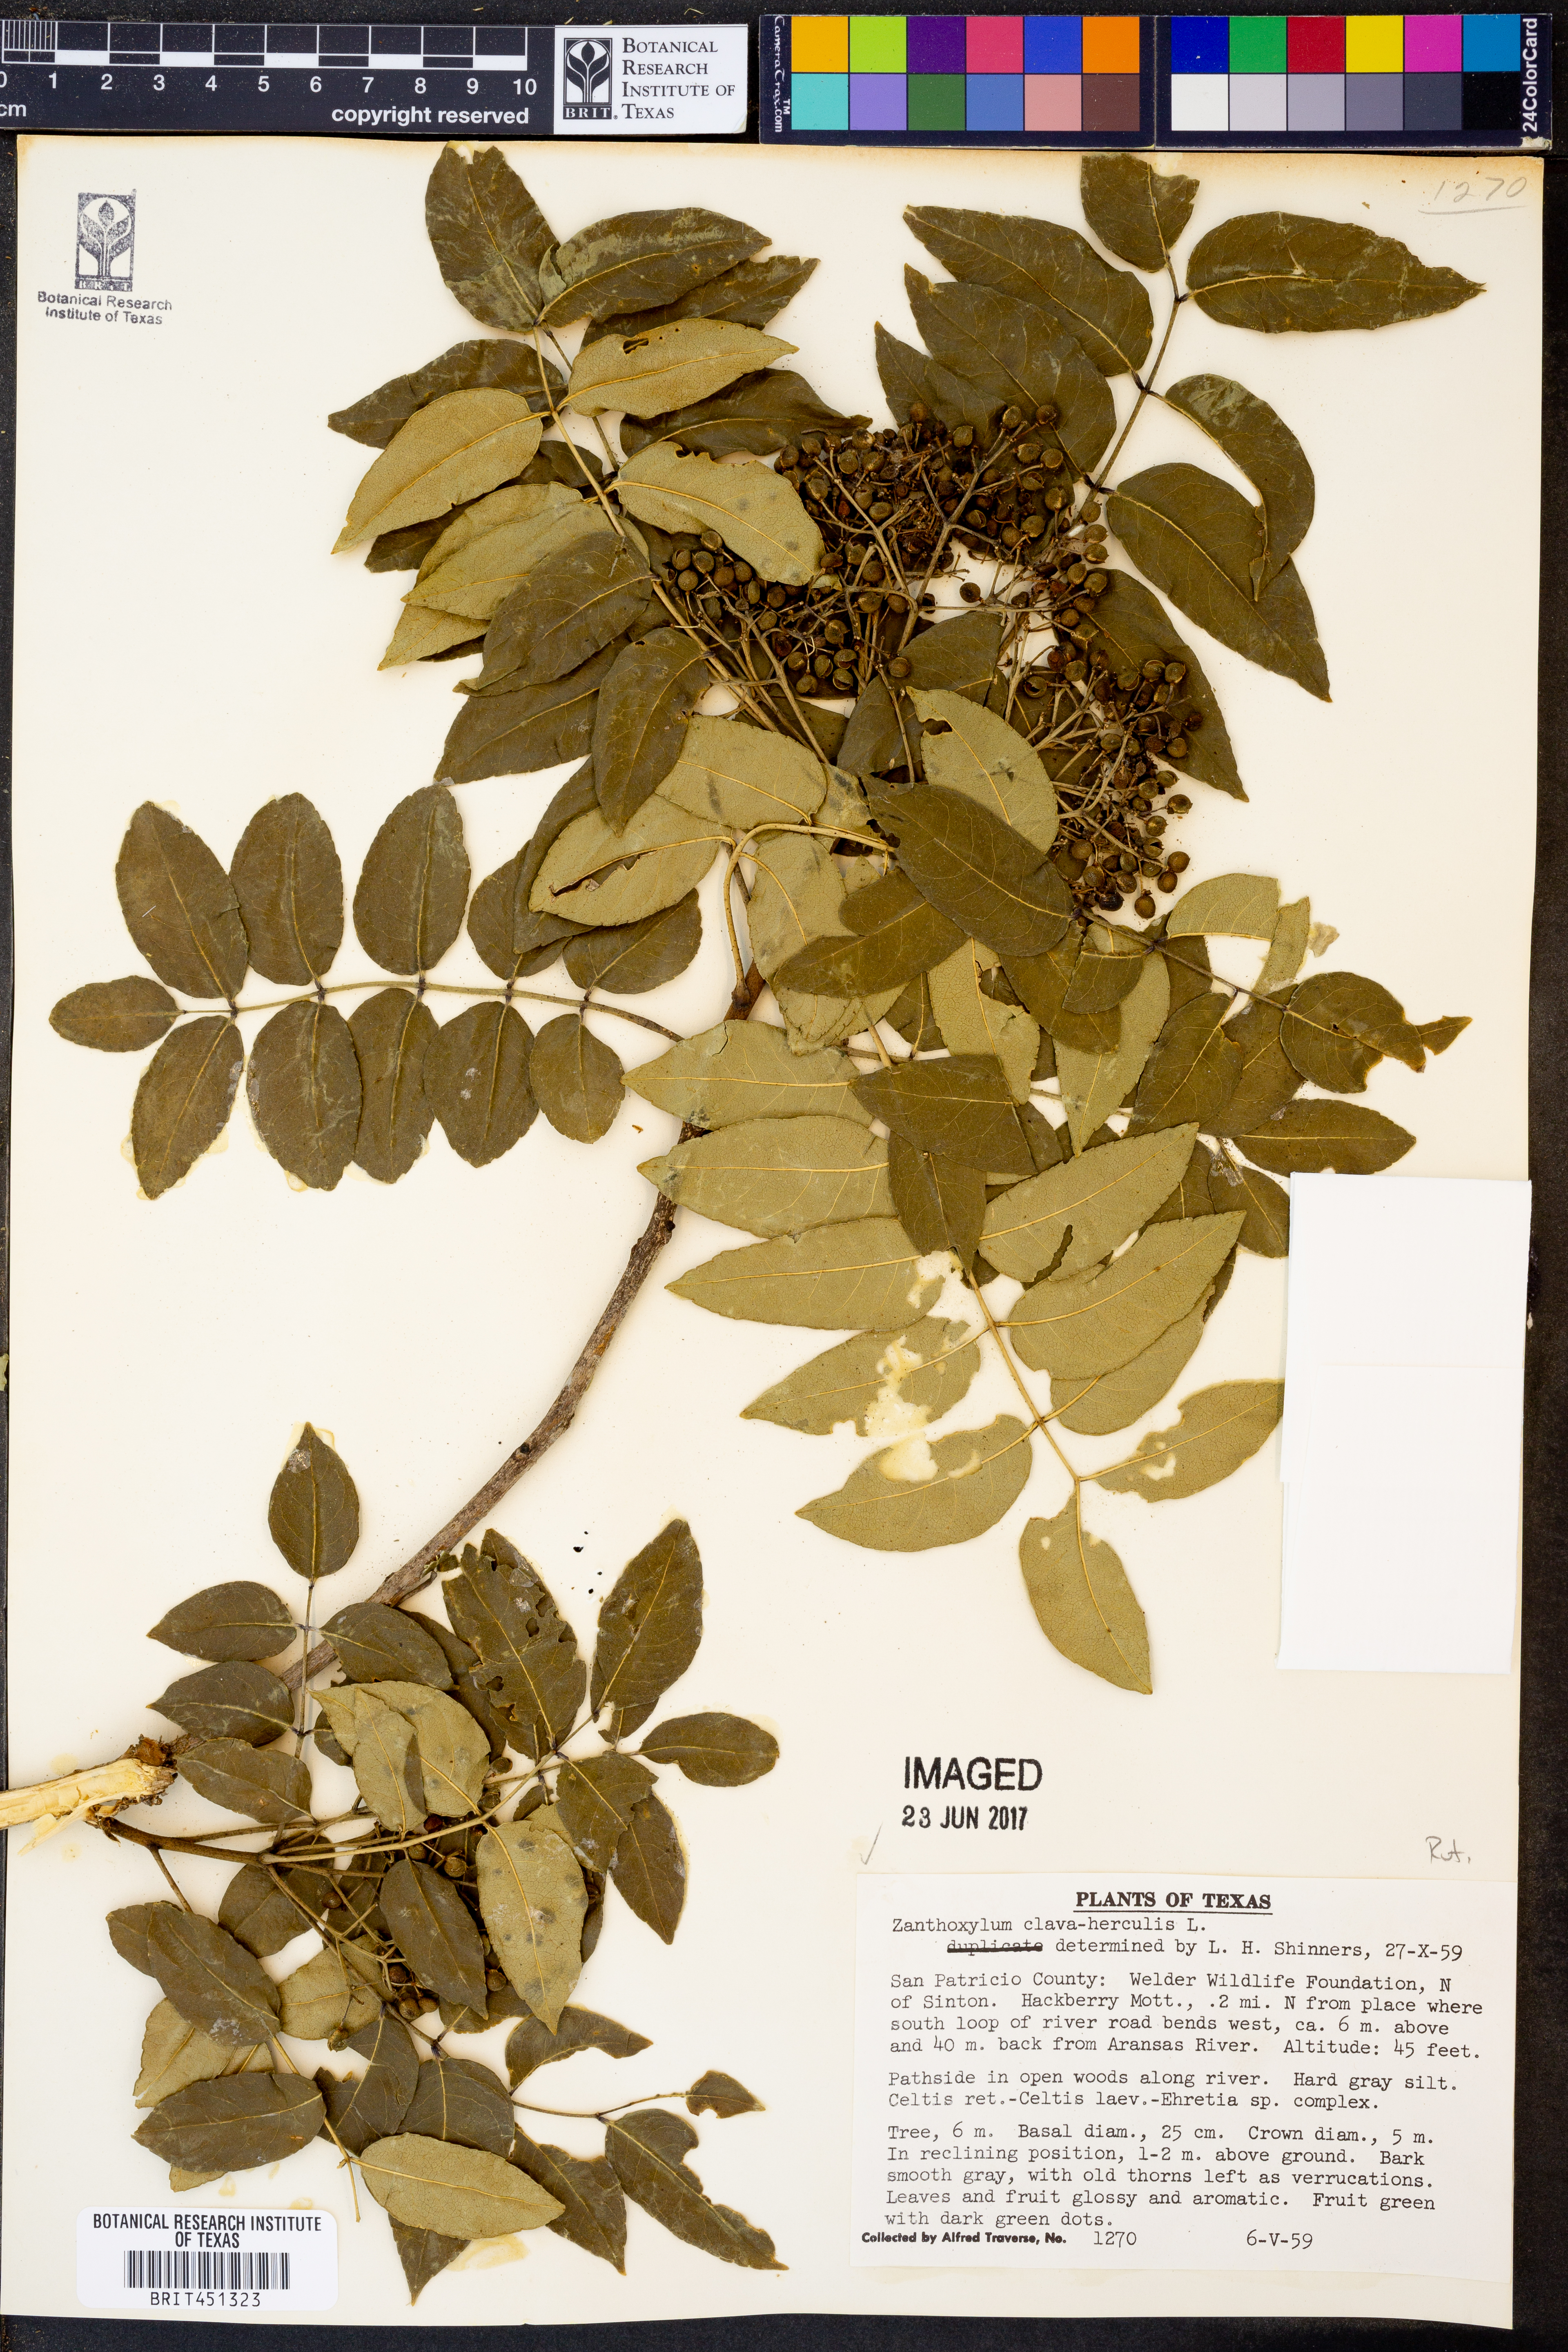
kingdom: Plantae
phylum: Tracheophyta
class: Magnoliopsida
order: Sapindales
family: Rutaceae
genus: Zanthoxylum
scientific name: Zanthoxylum avicennae
